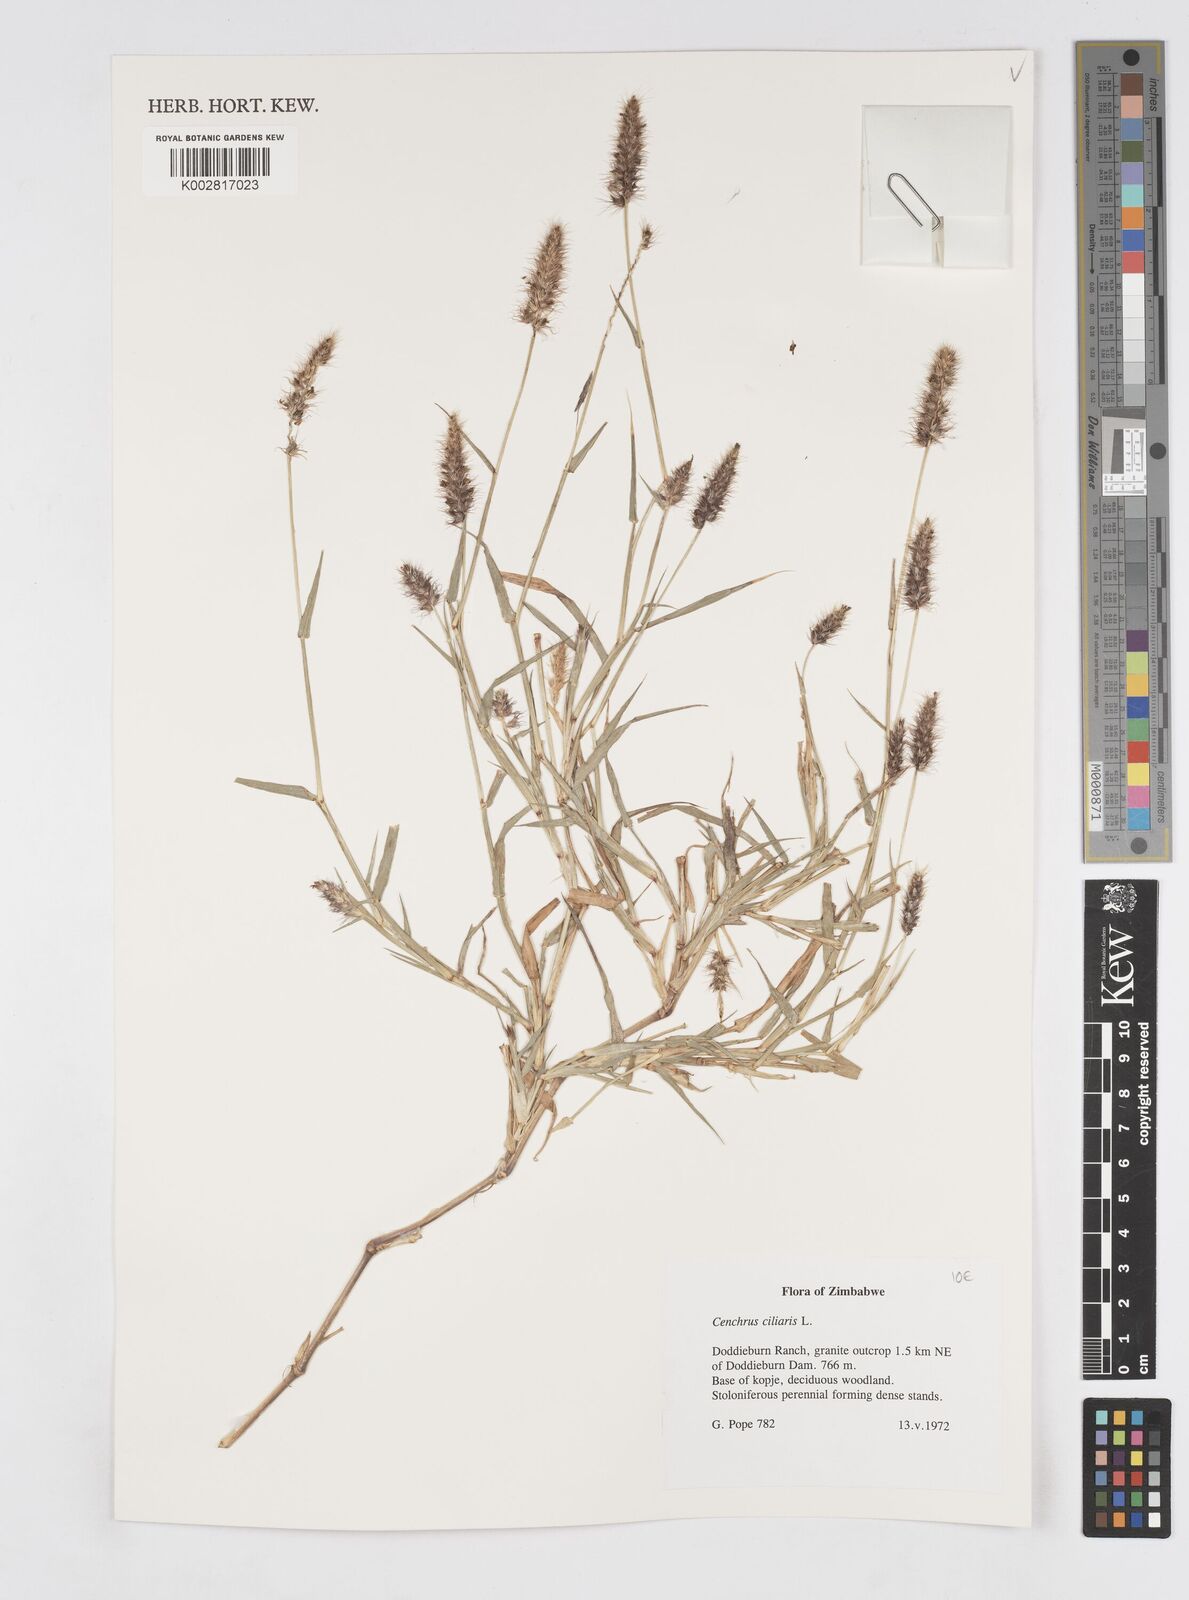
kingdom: Plantae
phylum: Tracheophyta
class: Liliopsida
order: Poales
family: Poaceae
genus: Cenchrus
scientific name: Cenchrus ciliaris
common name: Buffelgrass
